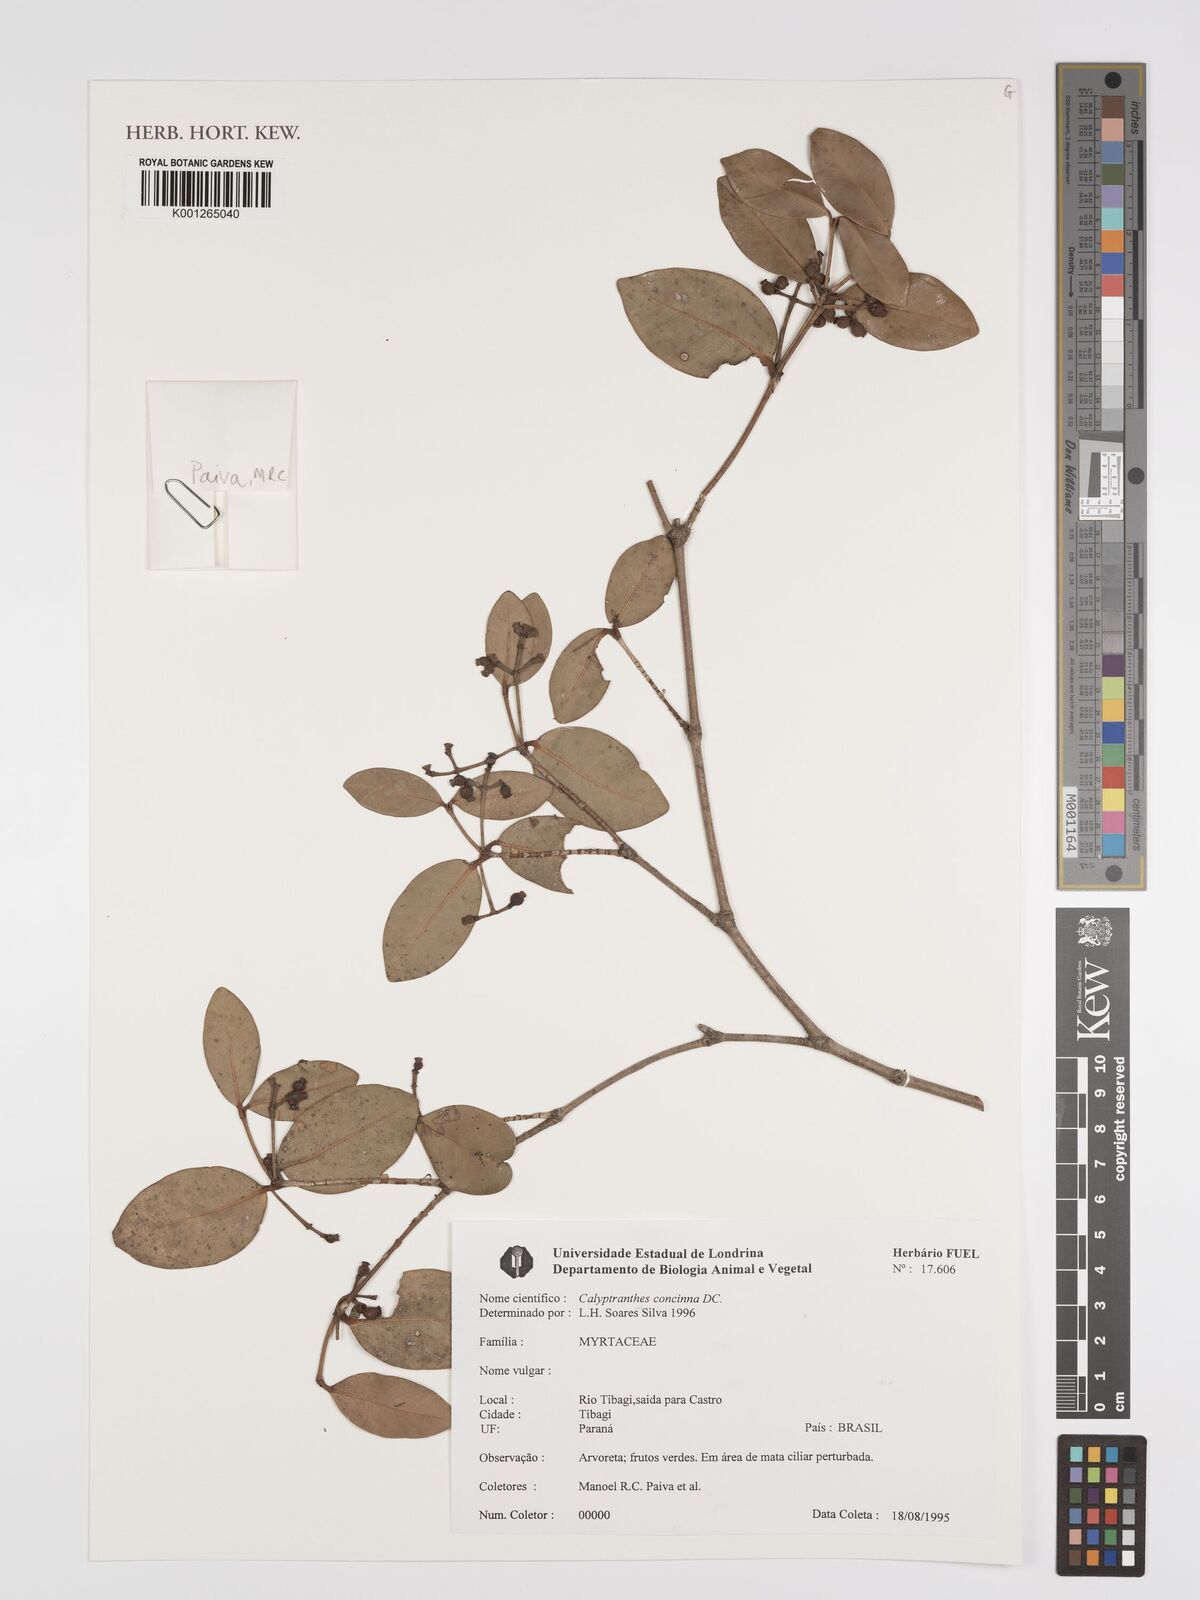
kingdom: Plantae
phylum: Tracheophyta
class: Magnoliopsida
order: Myrtales
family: Myrtaceae
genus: Myrcia
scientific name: Myrcia cruciflora
